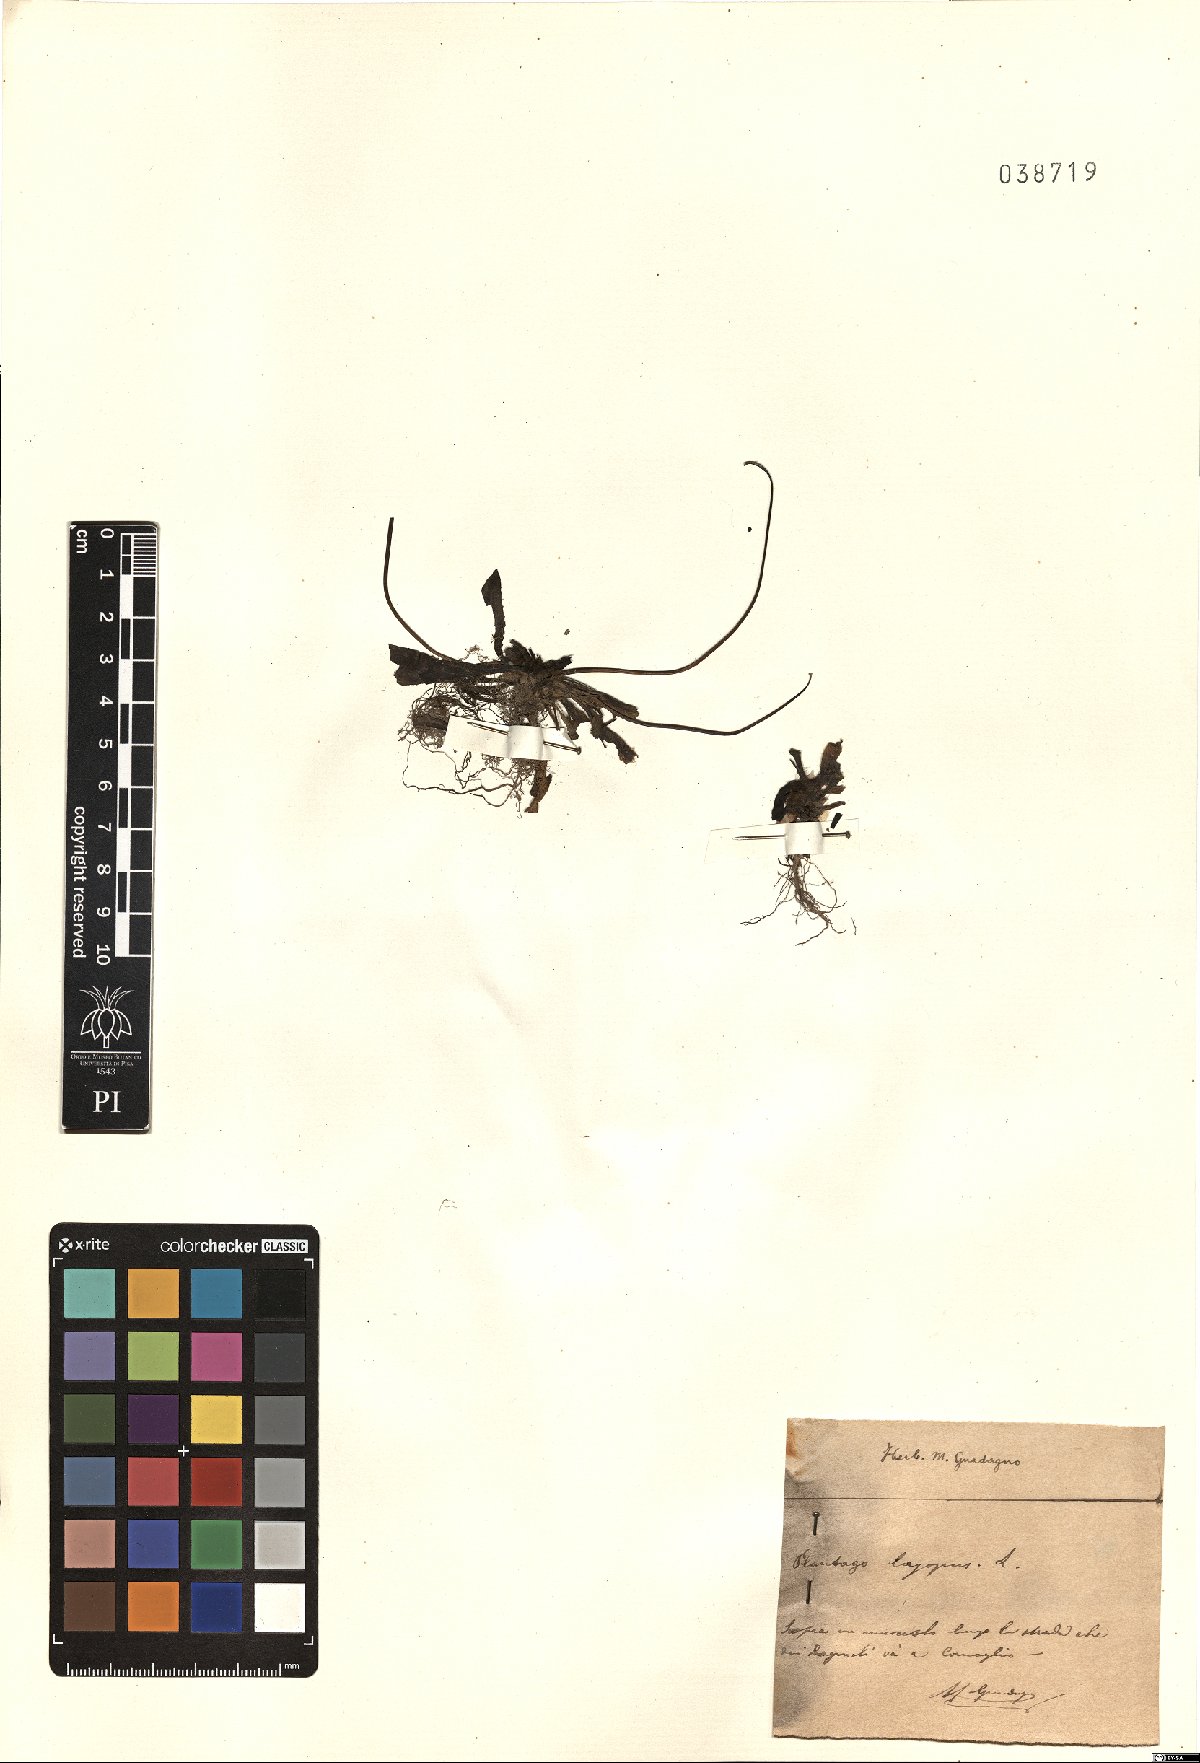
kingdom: Plantae
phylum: Tracheophyta
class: Magnoliopsida
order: Lamiales
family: Plantaginaceae
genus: Plantago
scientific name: Plantago lagopus
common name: Hare-foot plantain
